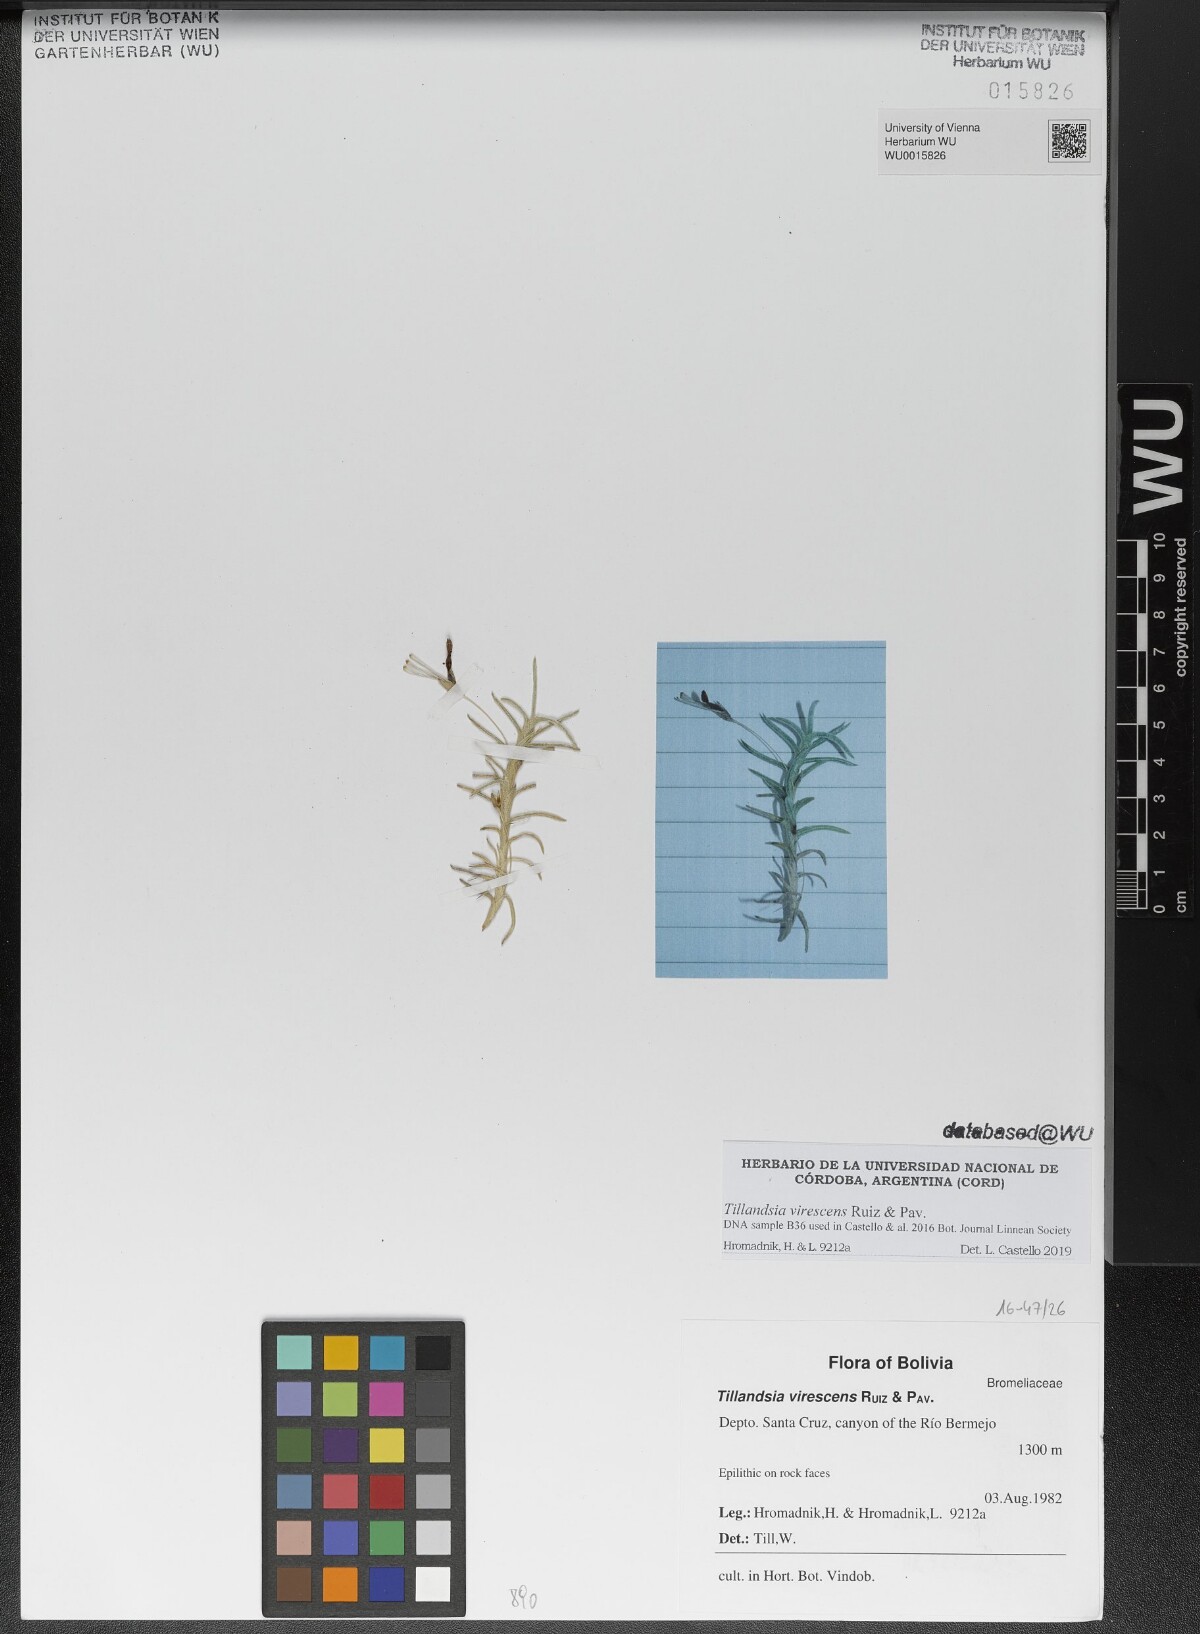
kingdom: Plantae
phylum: Tracheophyta
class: Liliopsida
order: Poales
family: Bromeliaceae
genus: Tillandsia
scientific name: Tillandsia virescens
